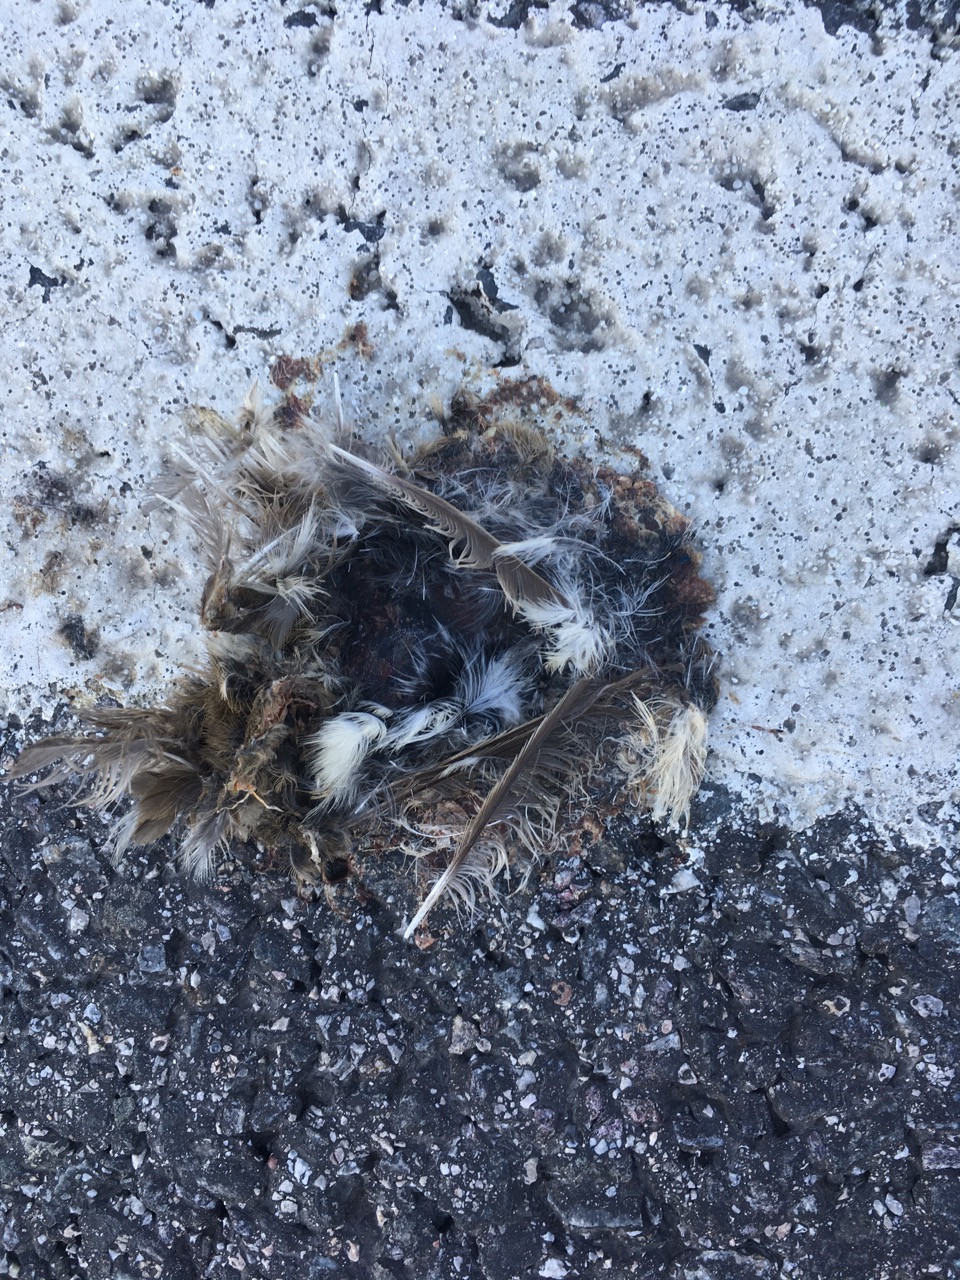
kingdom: Animalia
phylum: Chordata
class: Aves
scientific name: Aves
